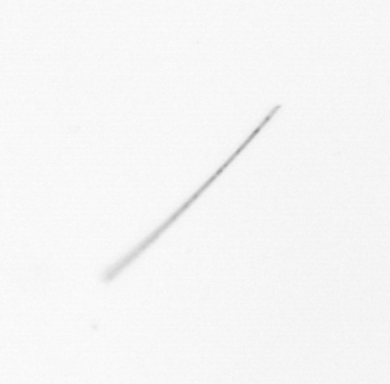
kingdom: Chromista
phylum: Ochrophyta
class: Bacillariophyceae
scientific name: Bacillariophyceae
